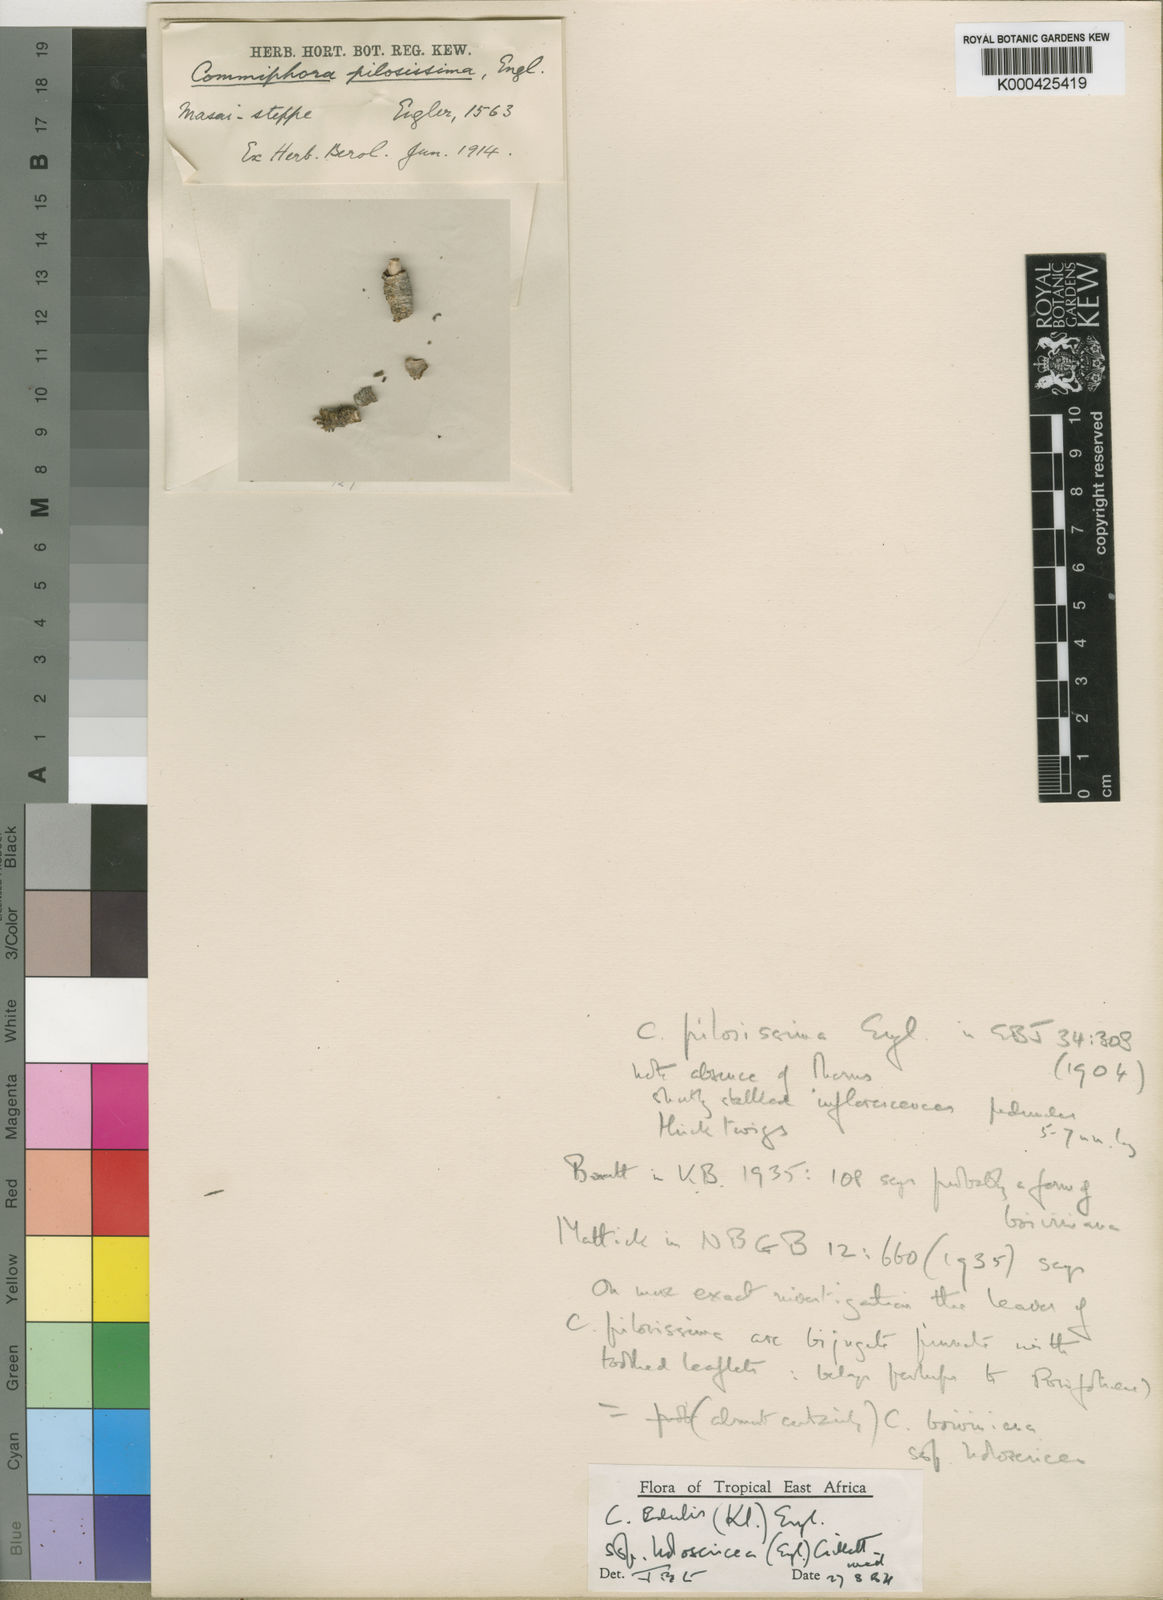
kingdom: Plantae
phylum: Tracheophyta
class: Magnoliopsida
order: Sapindales
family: Burseraceae
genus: Commiphora
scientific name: Commiphora edulis
